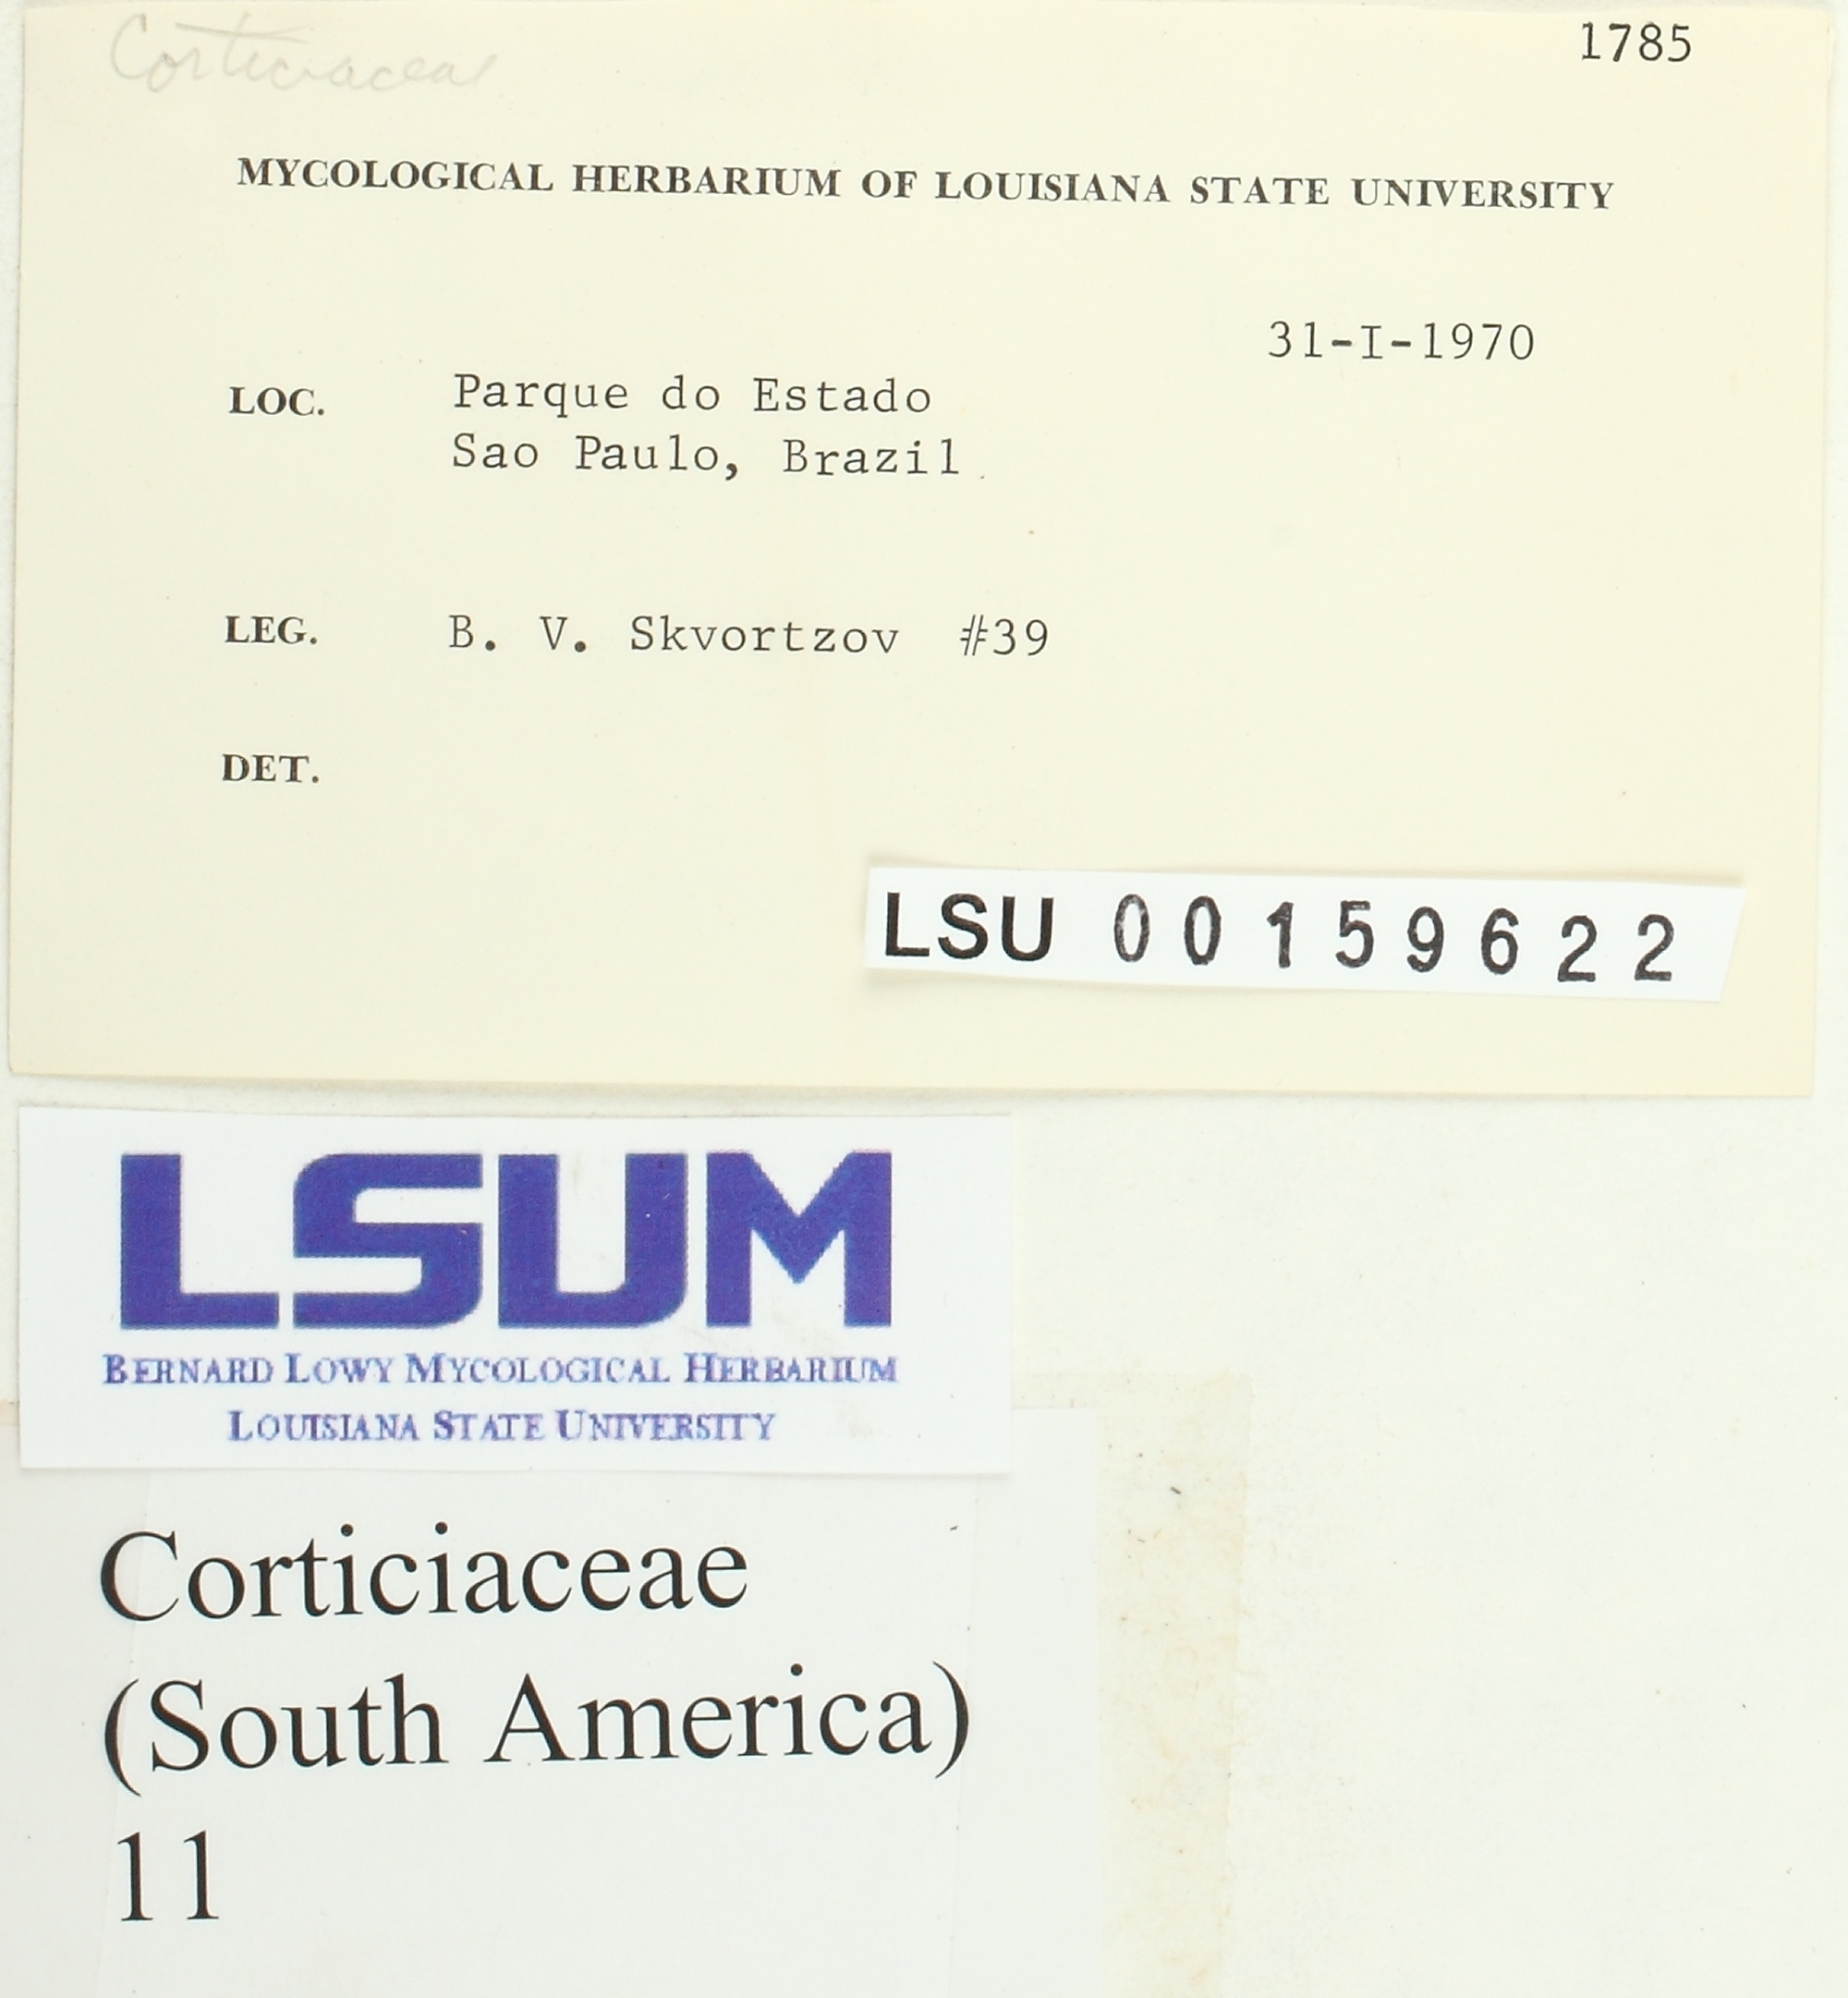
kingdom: Fungi
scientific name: Fungi
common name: Fungi
